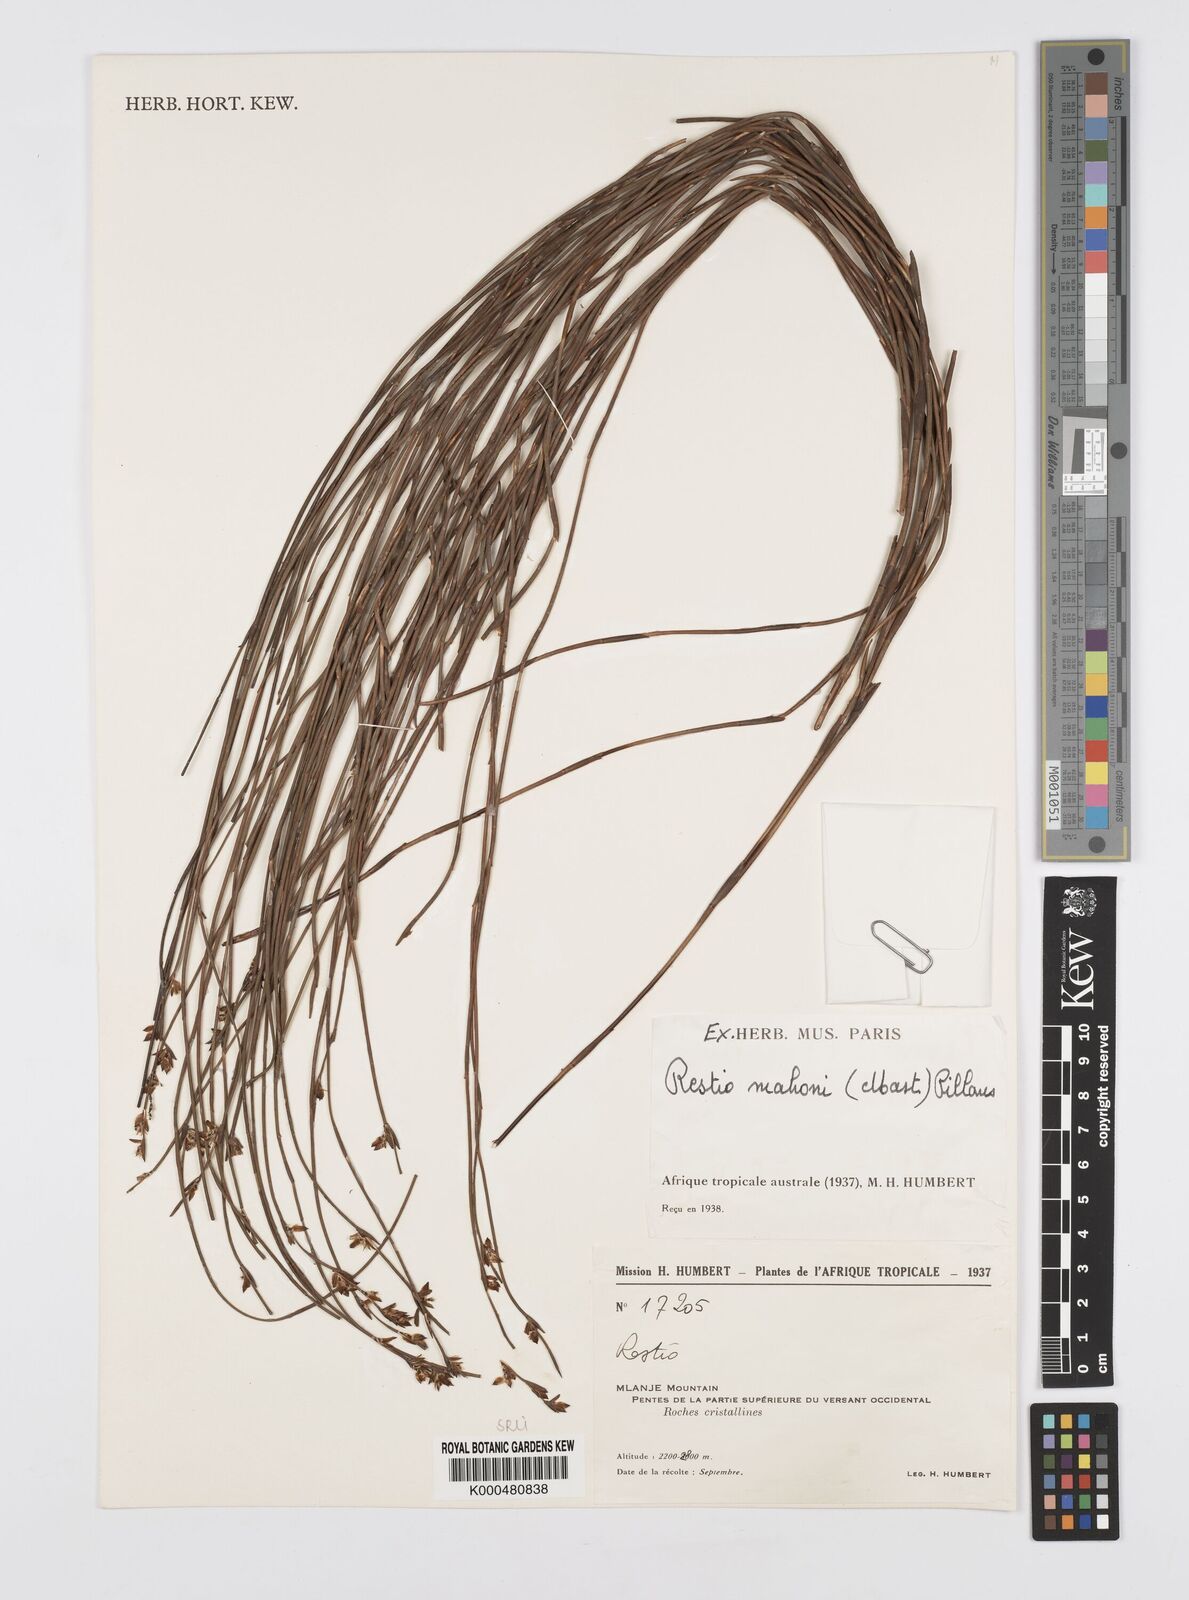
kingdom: Plantae
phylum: Tracheophyta
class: Liliopsida
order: Poales
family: Restionaceae
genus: Platycaulos
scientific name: Platycaulos mahonii
